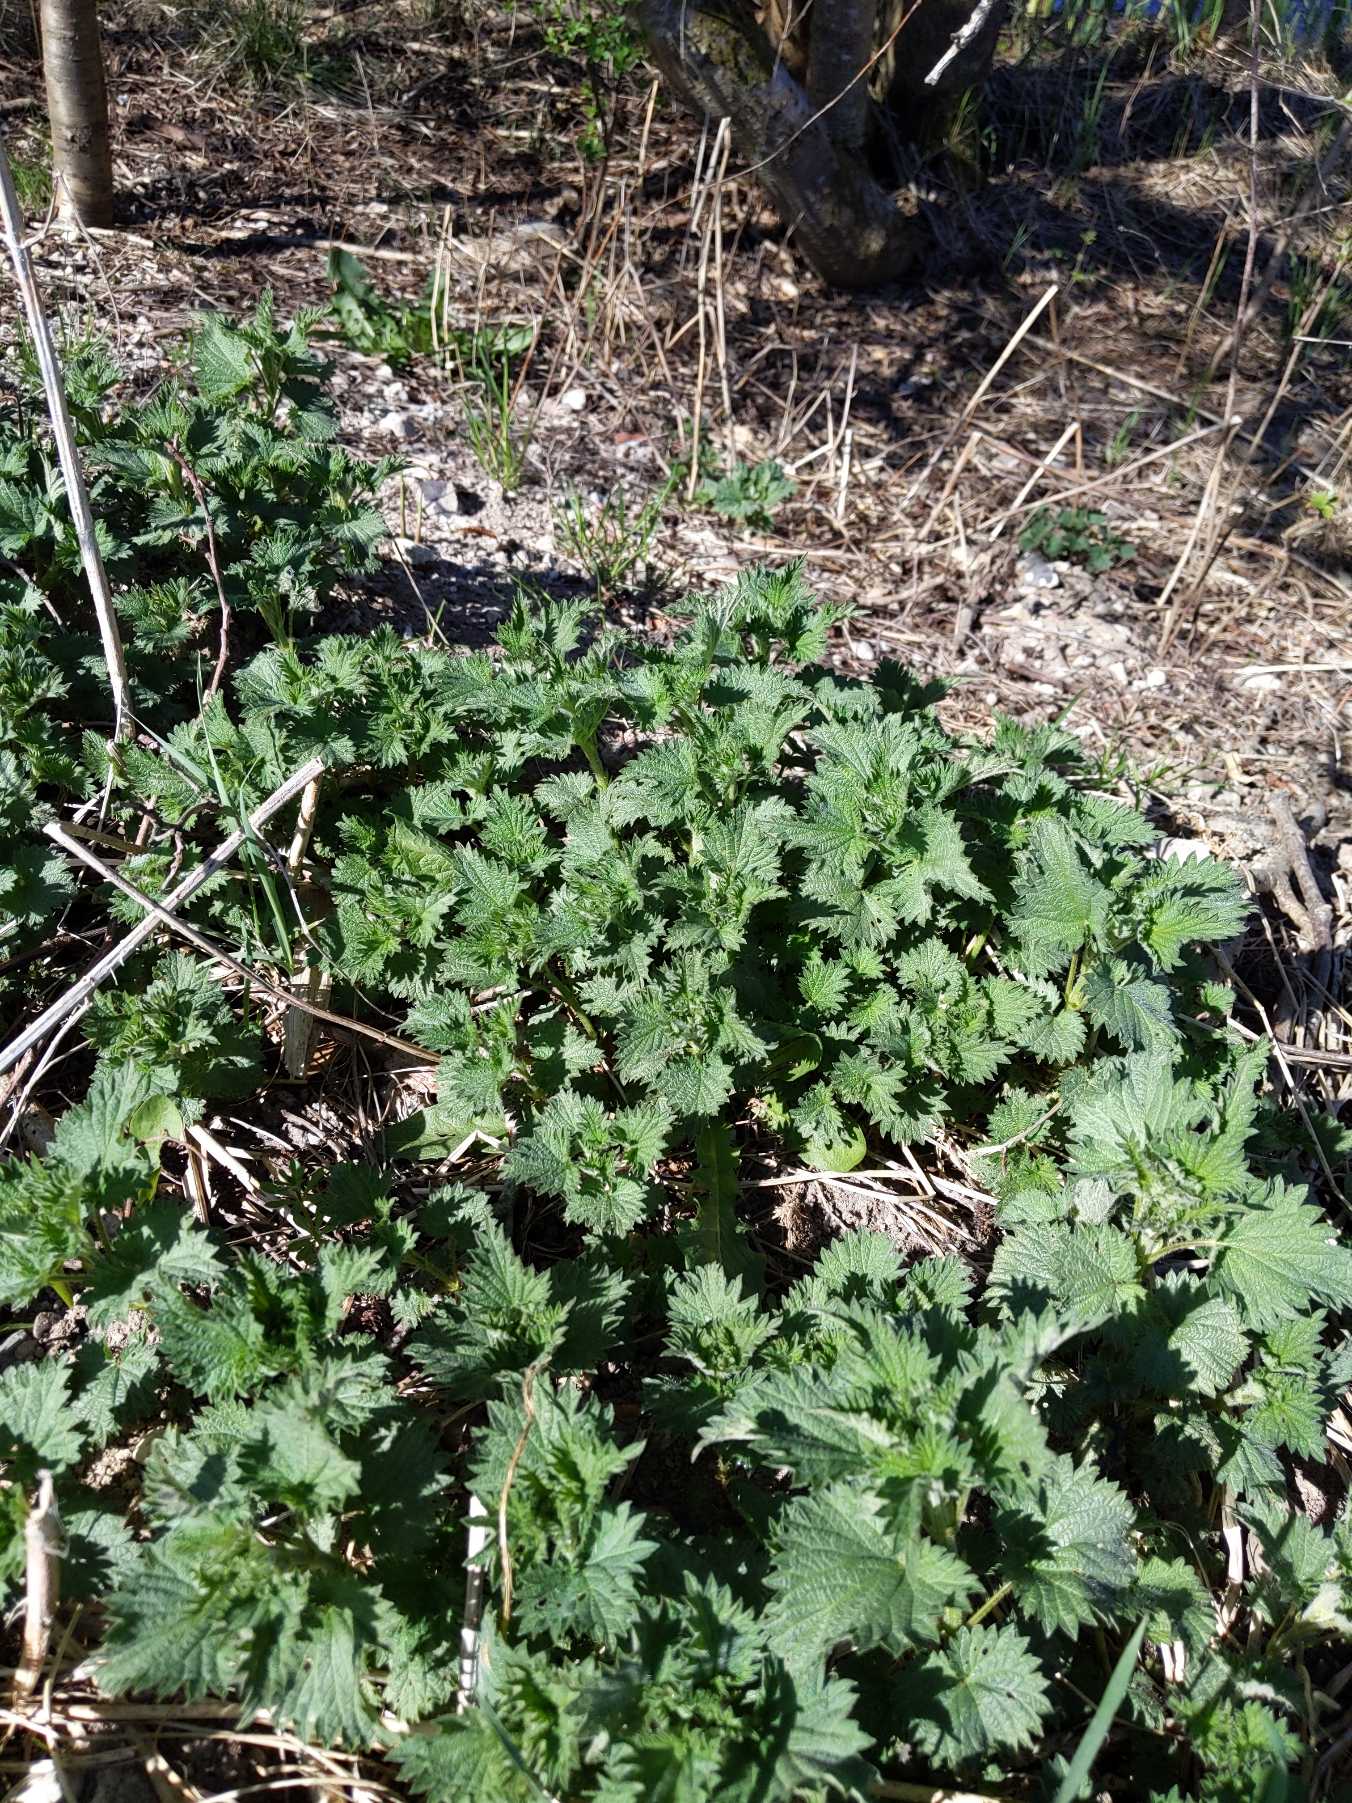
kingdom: Plantae
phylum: Tracheophyta
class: Magnoliopsida
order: Rosales
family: Urticaceae
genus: Urtica
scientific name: Urtica dioica
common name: Stor nælde
